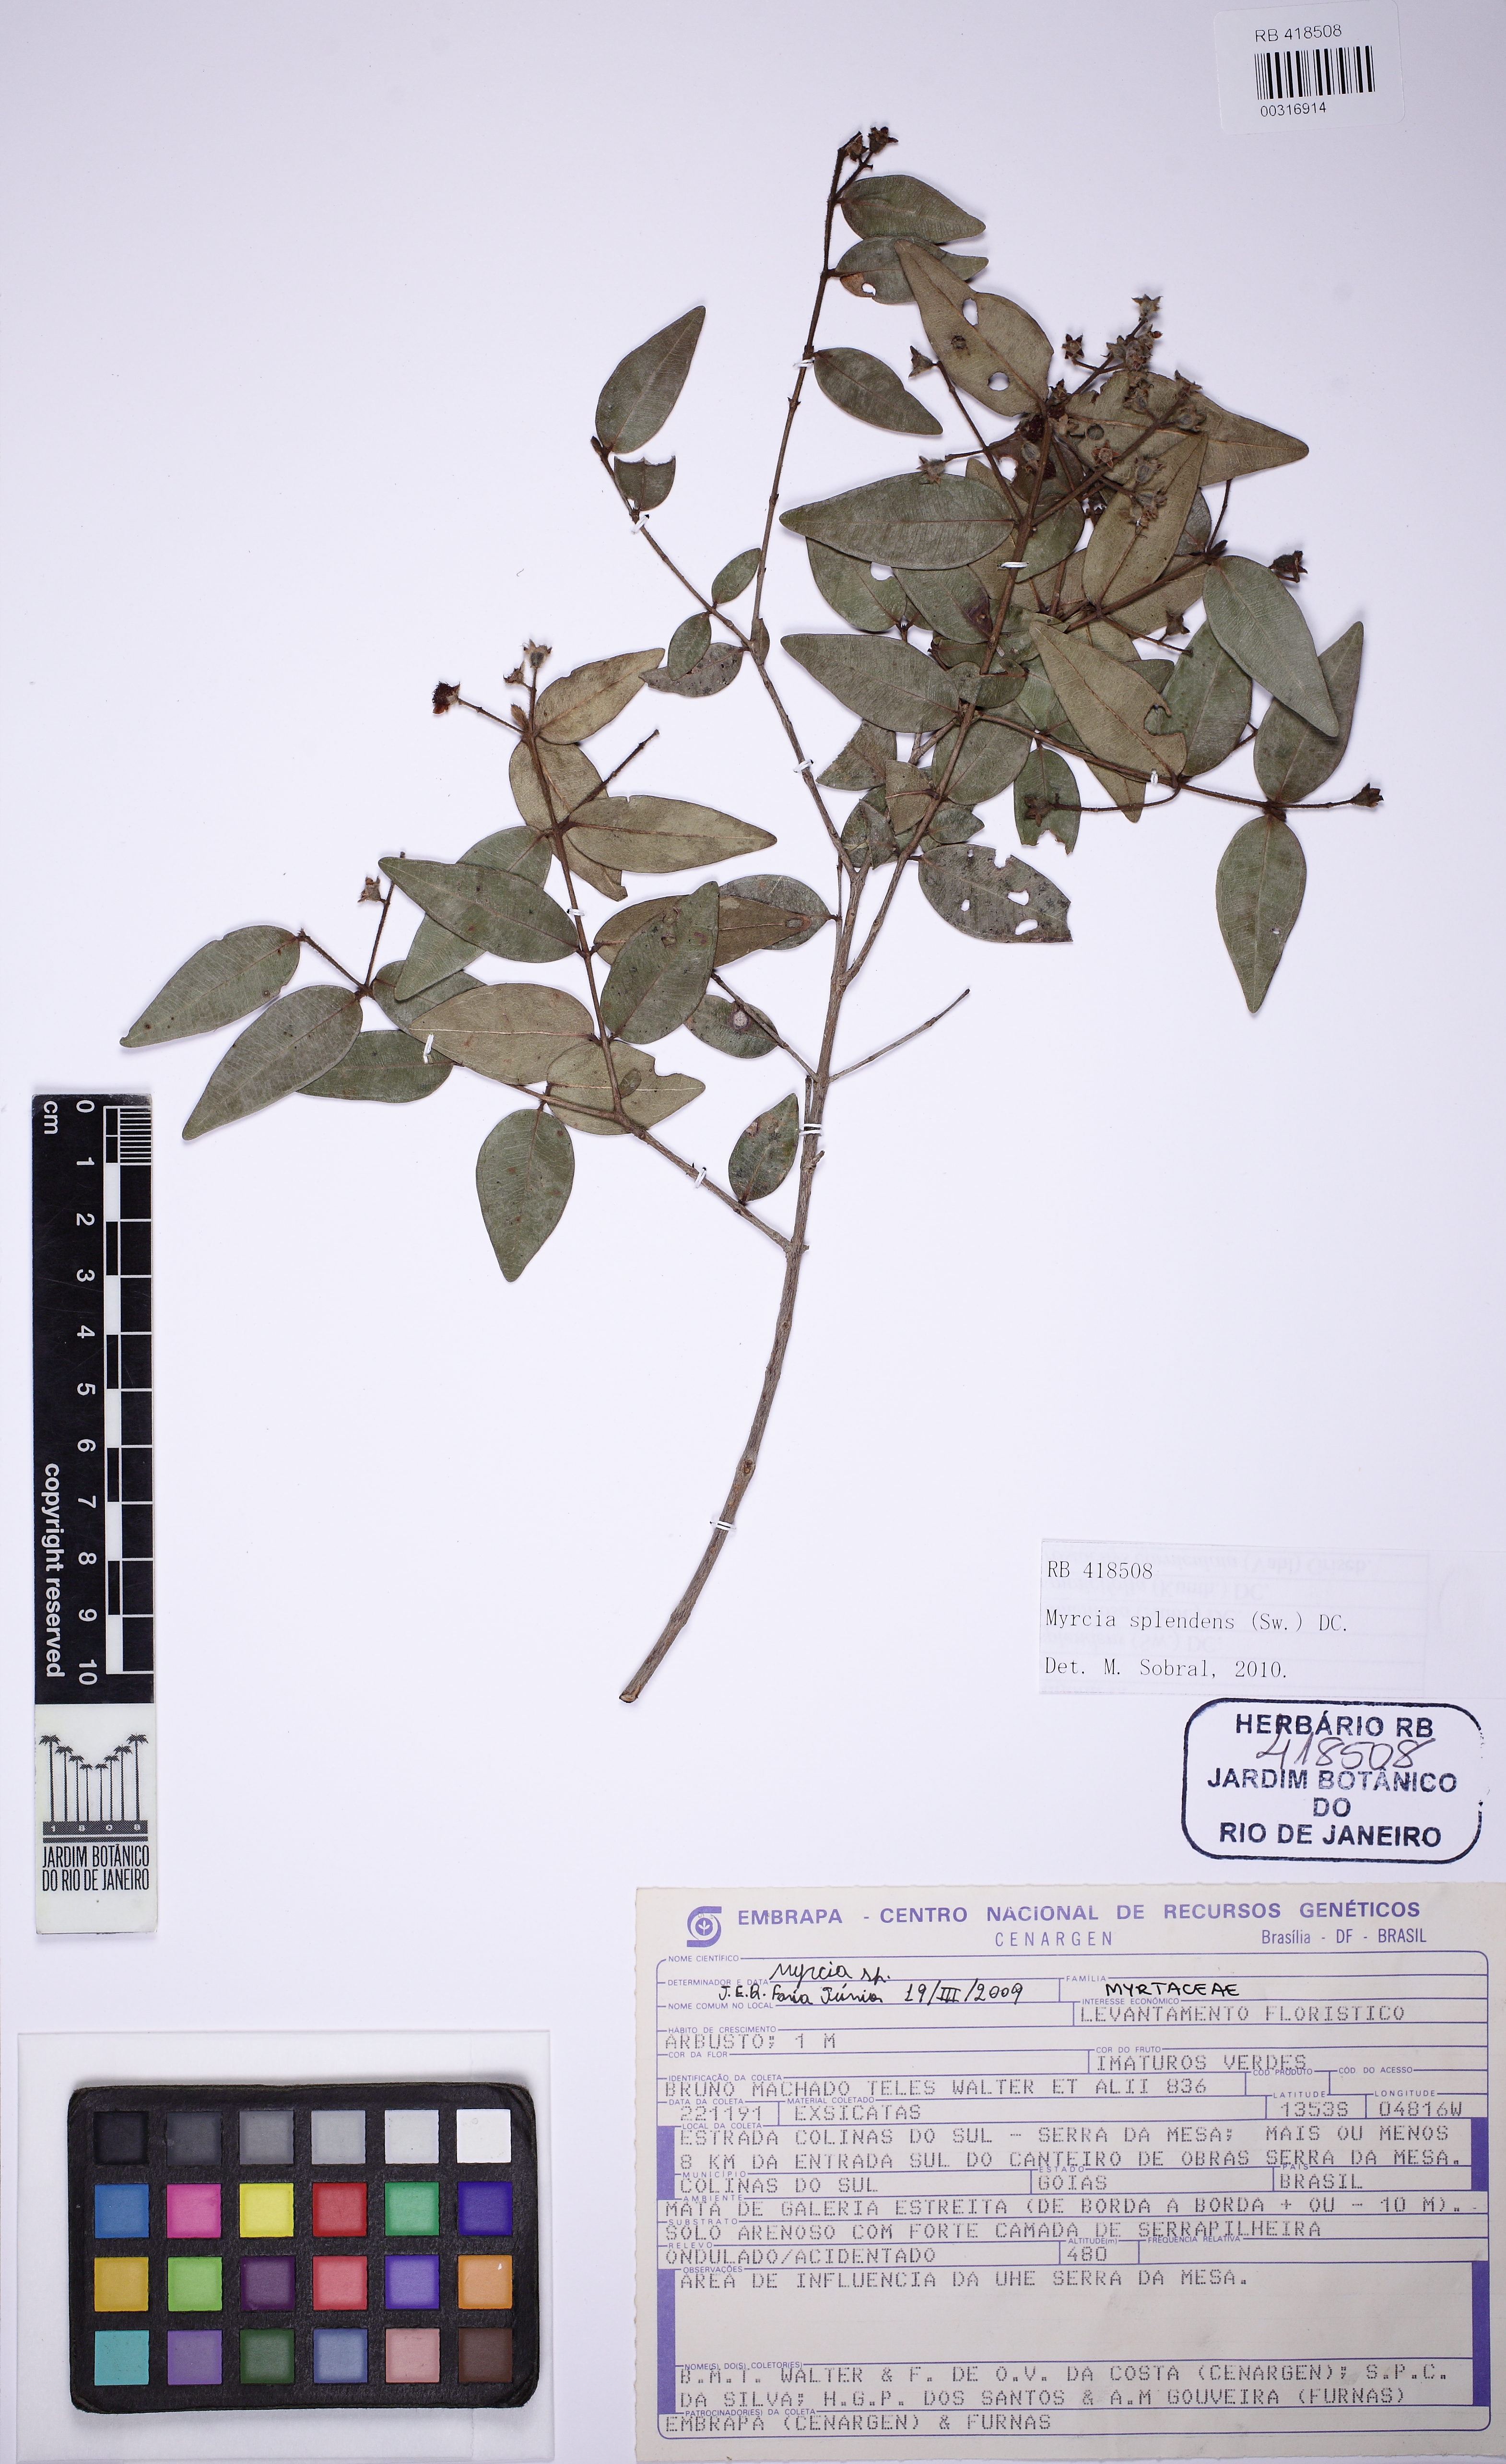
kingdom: Plantae
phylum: Tracheophyta
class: Magnoliopsida
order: Myrtales
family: Myrtaceae
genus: Myrcia
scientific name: Myrcia splendens
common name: Surinam cherry
